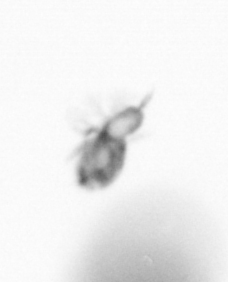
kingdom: Animalia
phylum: Arthropoda
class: Copepoda
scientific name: Copepoda
